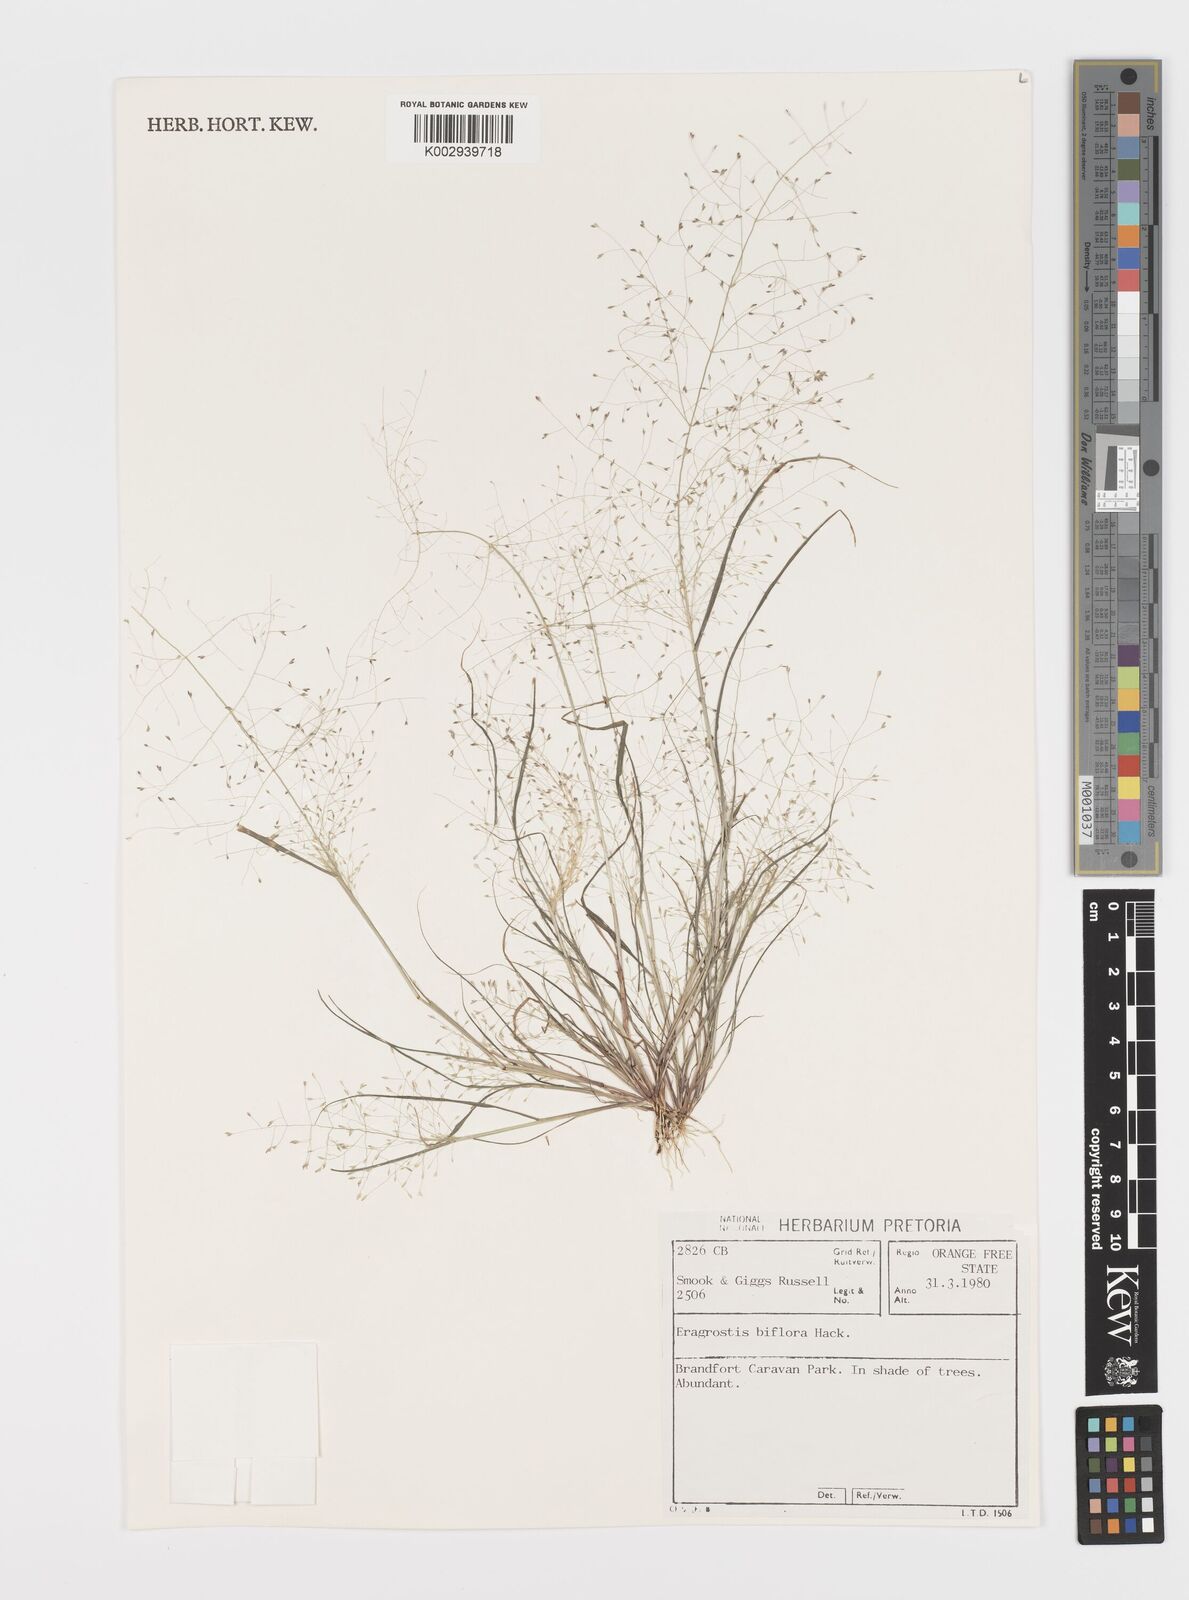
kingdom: Plantae
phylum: Tracheophyta
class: Liliopsida
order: Poales
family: Poaceae
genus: Eragrostis
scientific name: Eragrostis biflora
